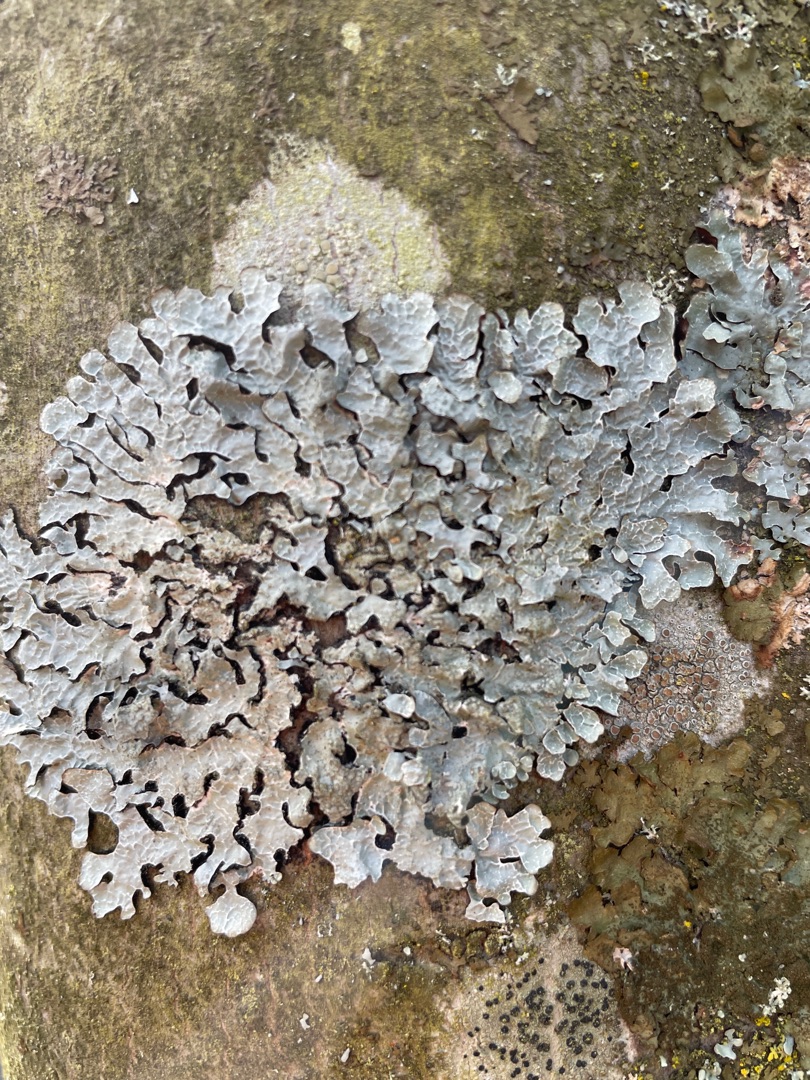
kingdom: Fungi
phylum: Ascomycota
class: Lecanoromycetes
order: Lecanorales
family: Parmeliaceae
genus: Parmelia
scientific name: Parmelia sulcata
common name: Rynket skållav
